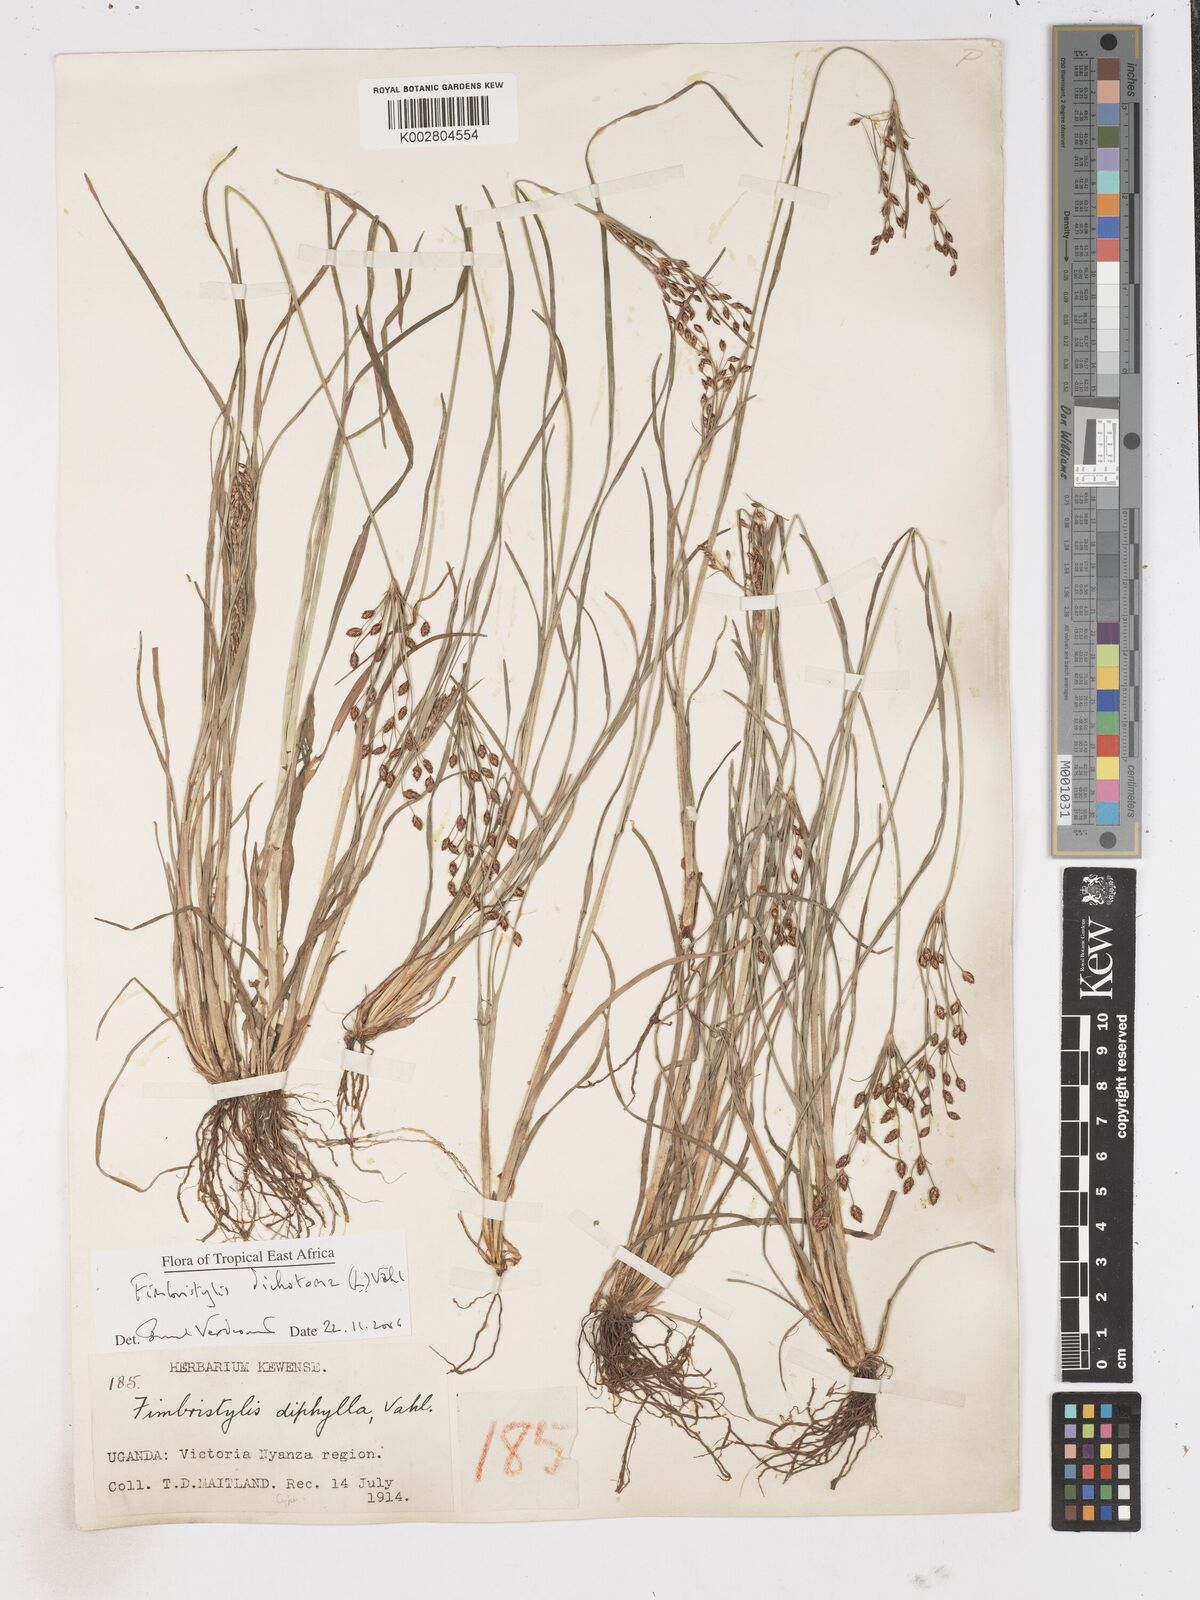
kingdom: Plantae
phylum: Tracheophyta
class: Liliopsida
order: Poales
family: Cyperaceae
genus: Fimbristylis
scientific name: Fimbristylis dichotoma
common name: Forked fimbry
